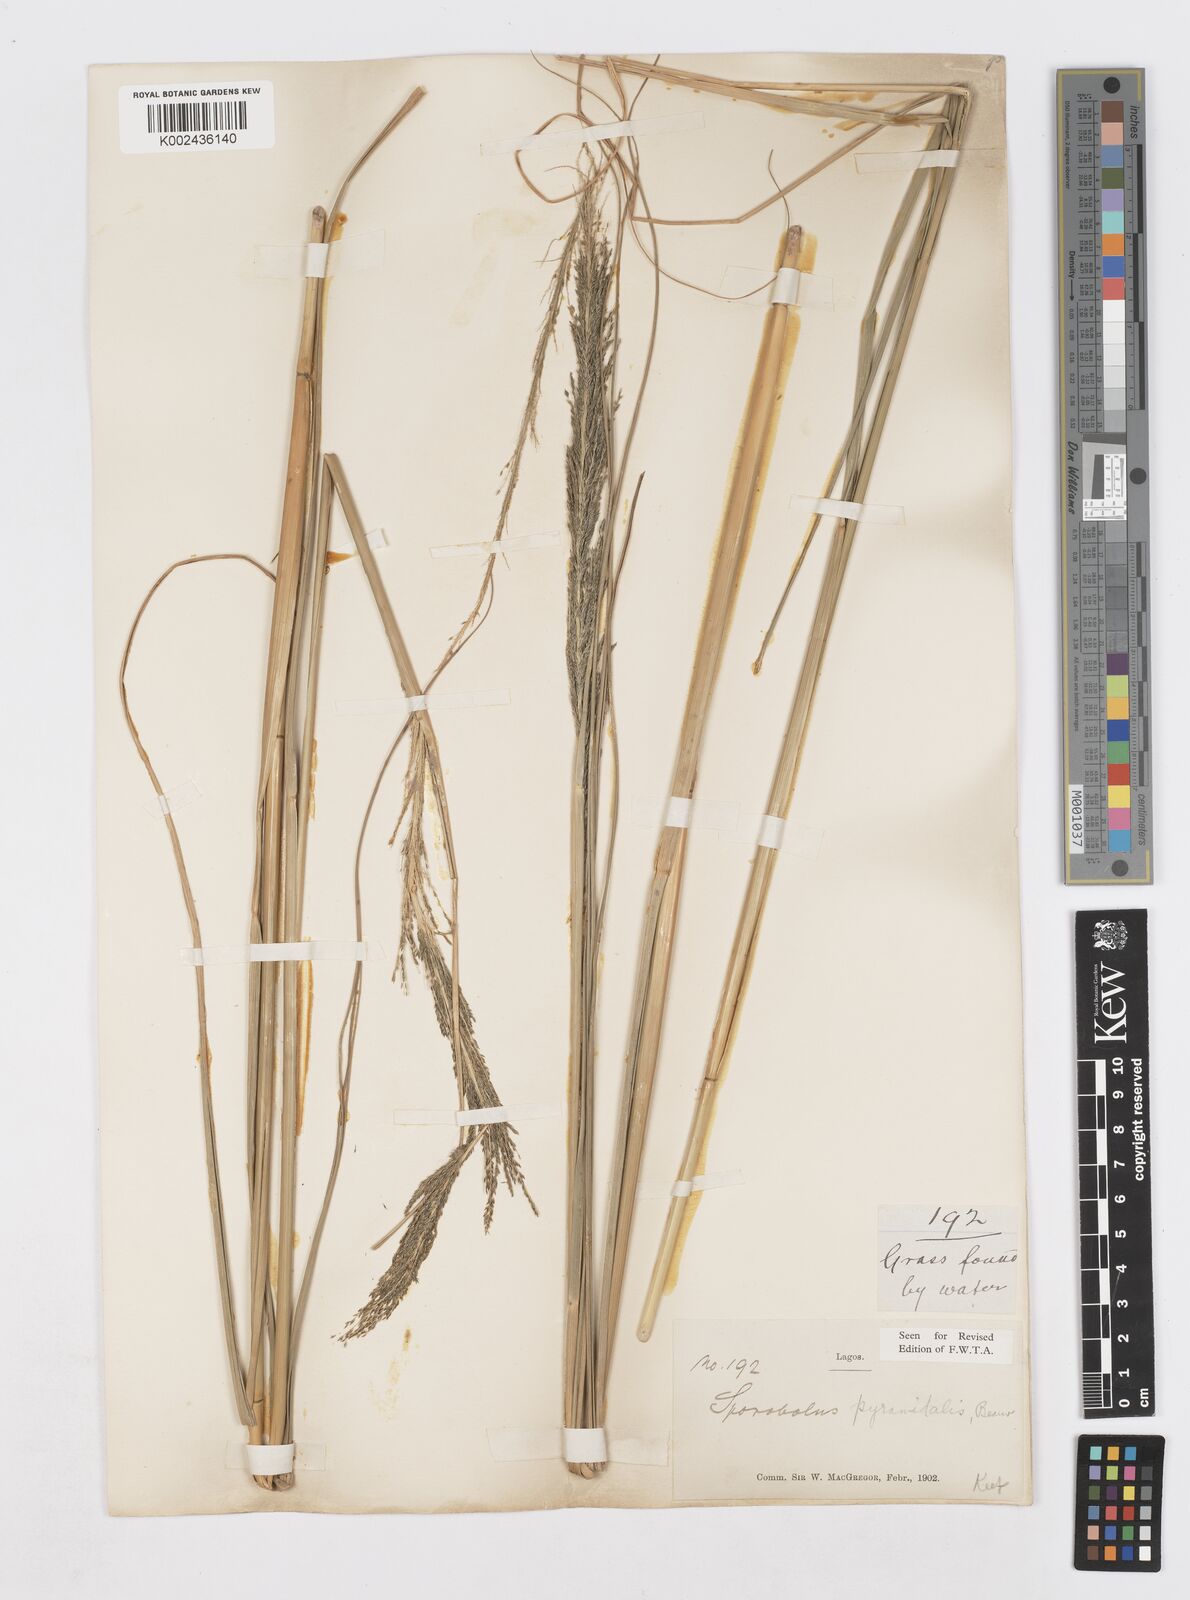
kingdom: Plantae
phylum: Tracheophyta
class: Liliopsida
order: Poales
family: Poaceae
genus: Sporobolus
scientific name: Sporobolus pyramidalis
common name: West indian dropseed
